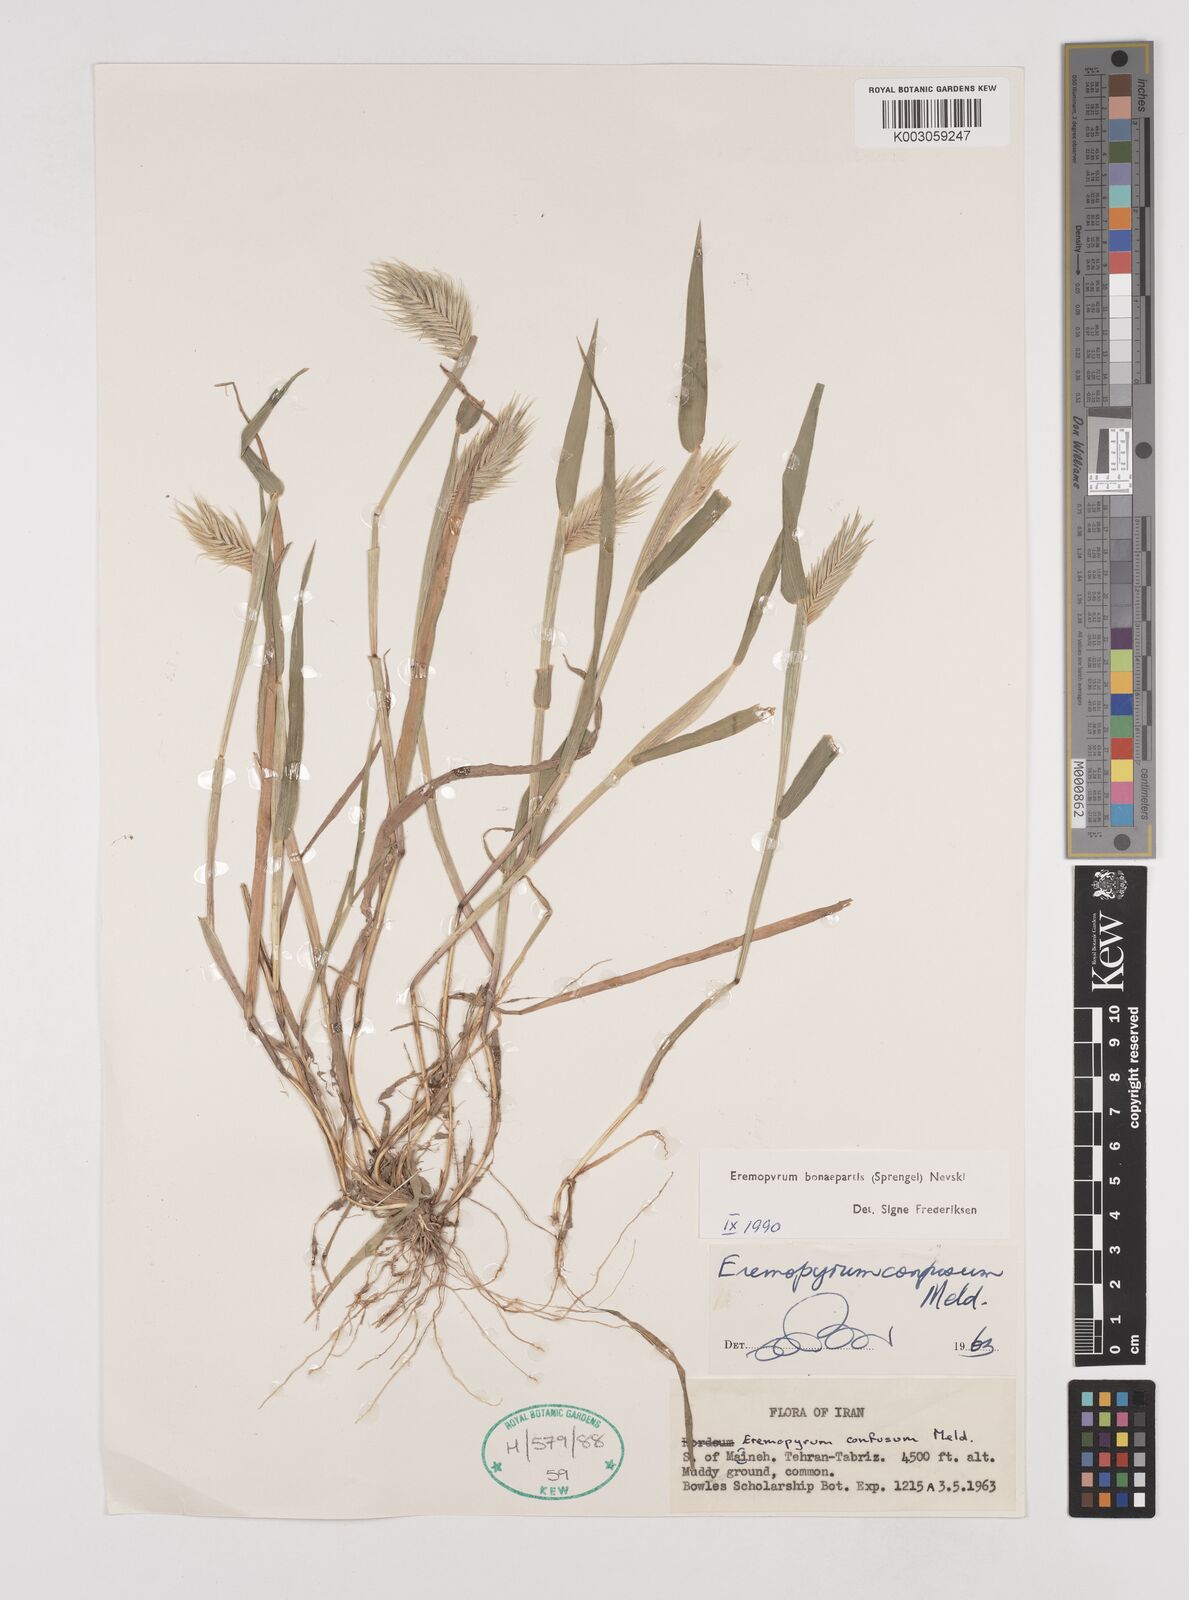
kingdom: Plantae
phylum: Tracheophyta
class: Liliopsida
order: Poales
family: Poaceae
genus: Eremopyrum
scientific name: Eremopyrum bonaepartis
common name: Tapertip false wheatgrass
